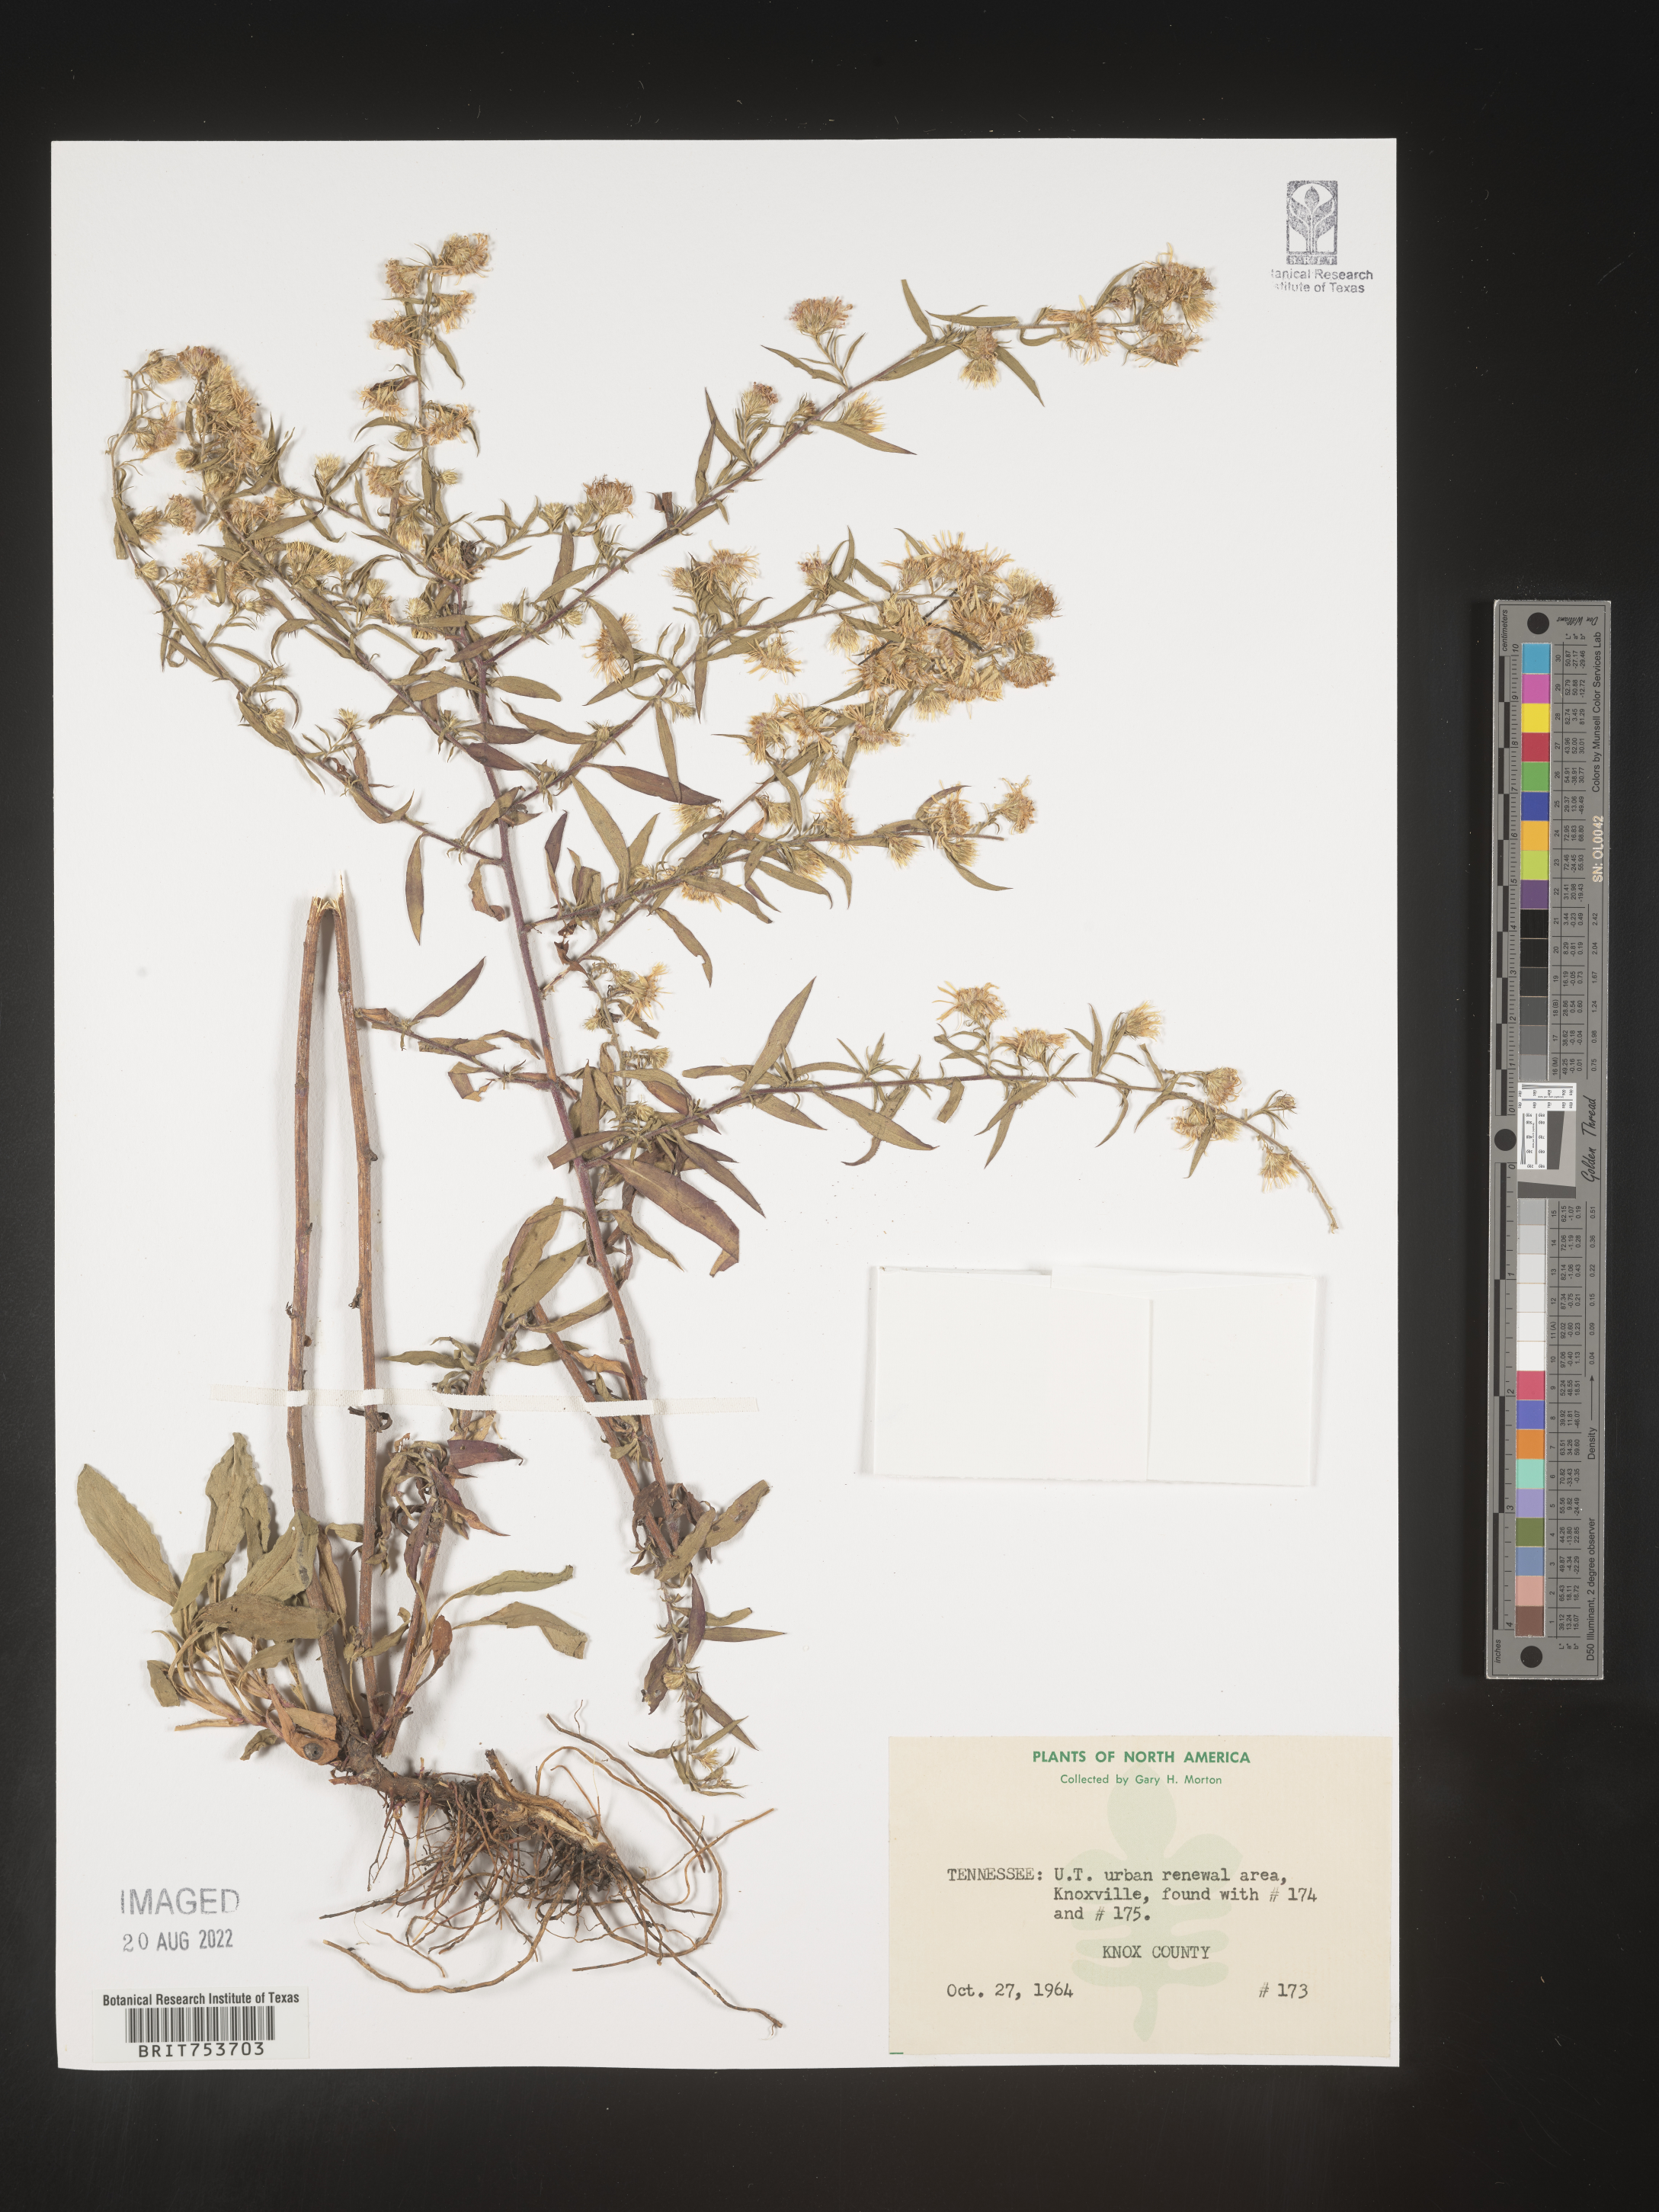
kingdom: Plantae
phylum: Tracheophyta
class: Magnoliopsida
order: Asterales
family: Asteraceae
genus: Symphyotrichum
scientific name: Symphyotrichum pilosum
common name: Awl aster
